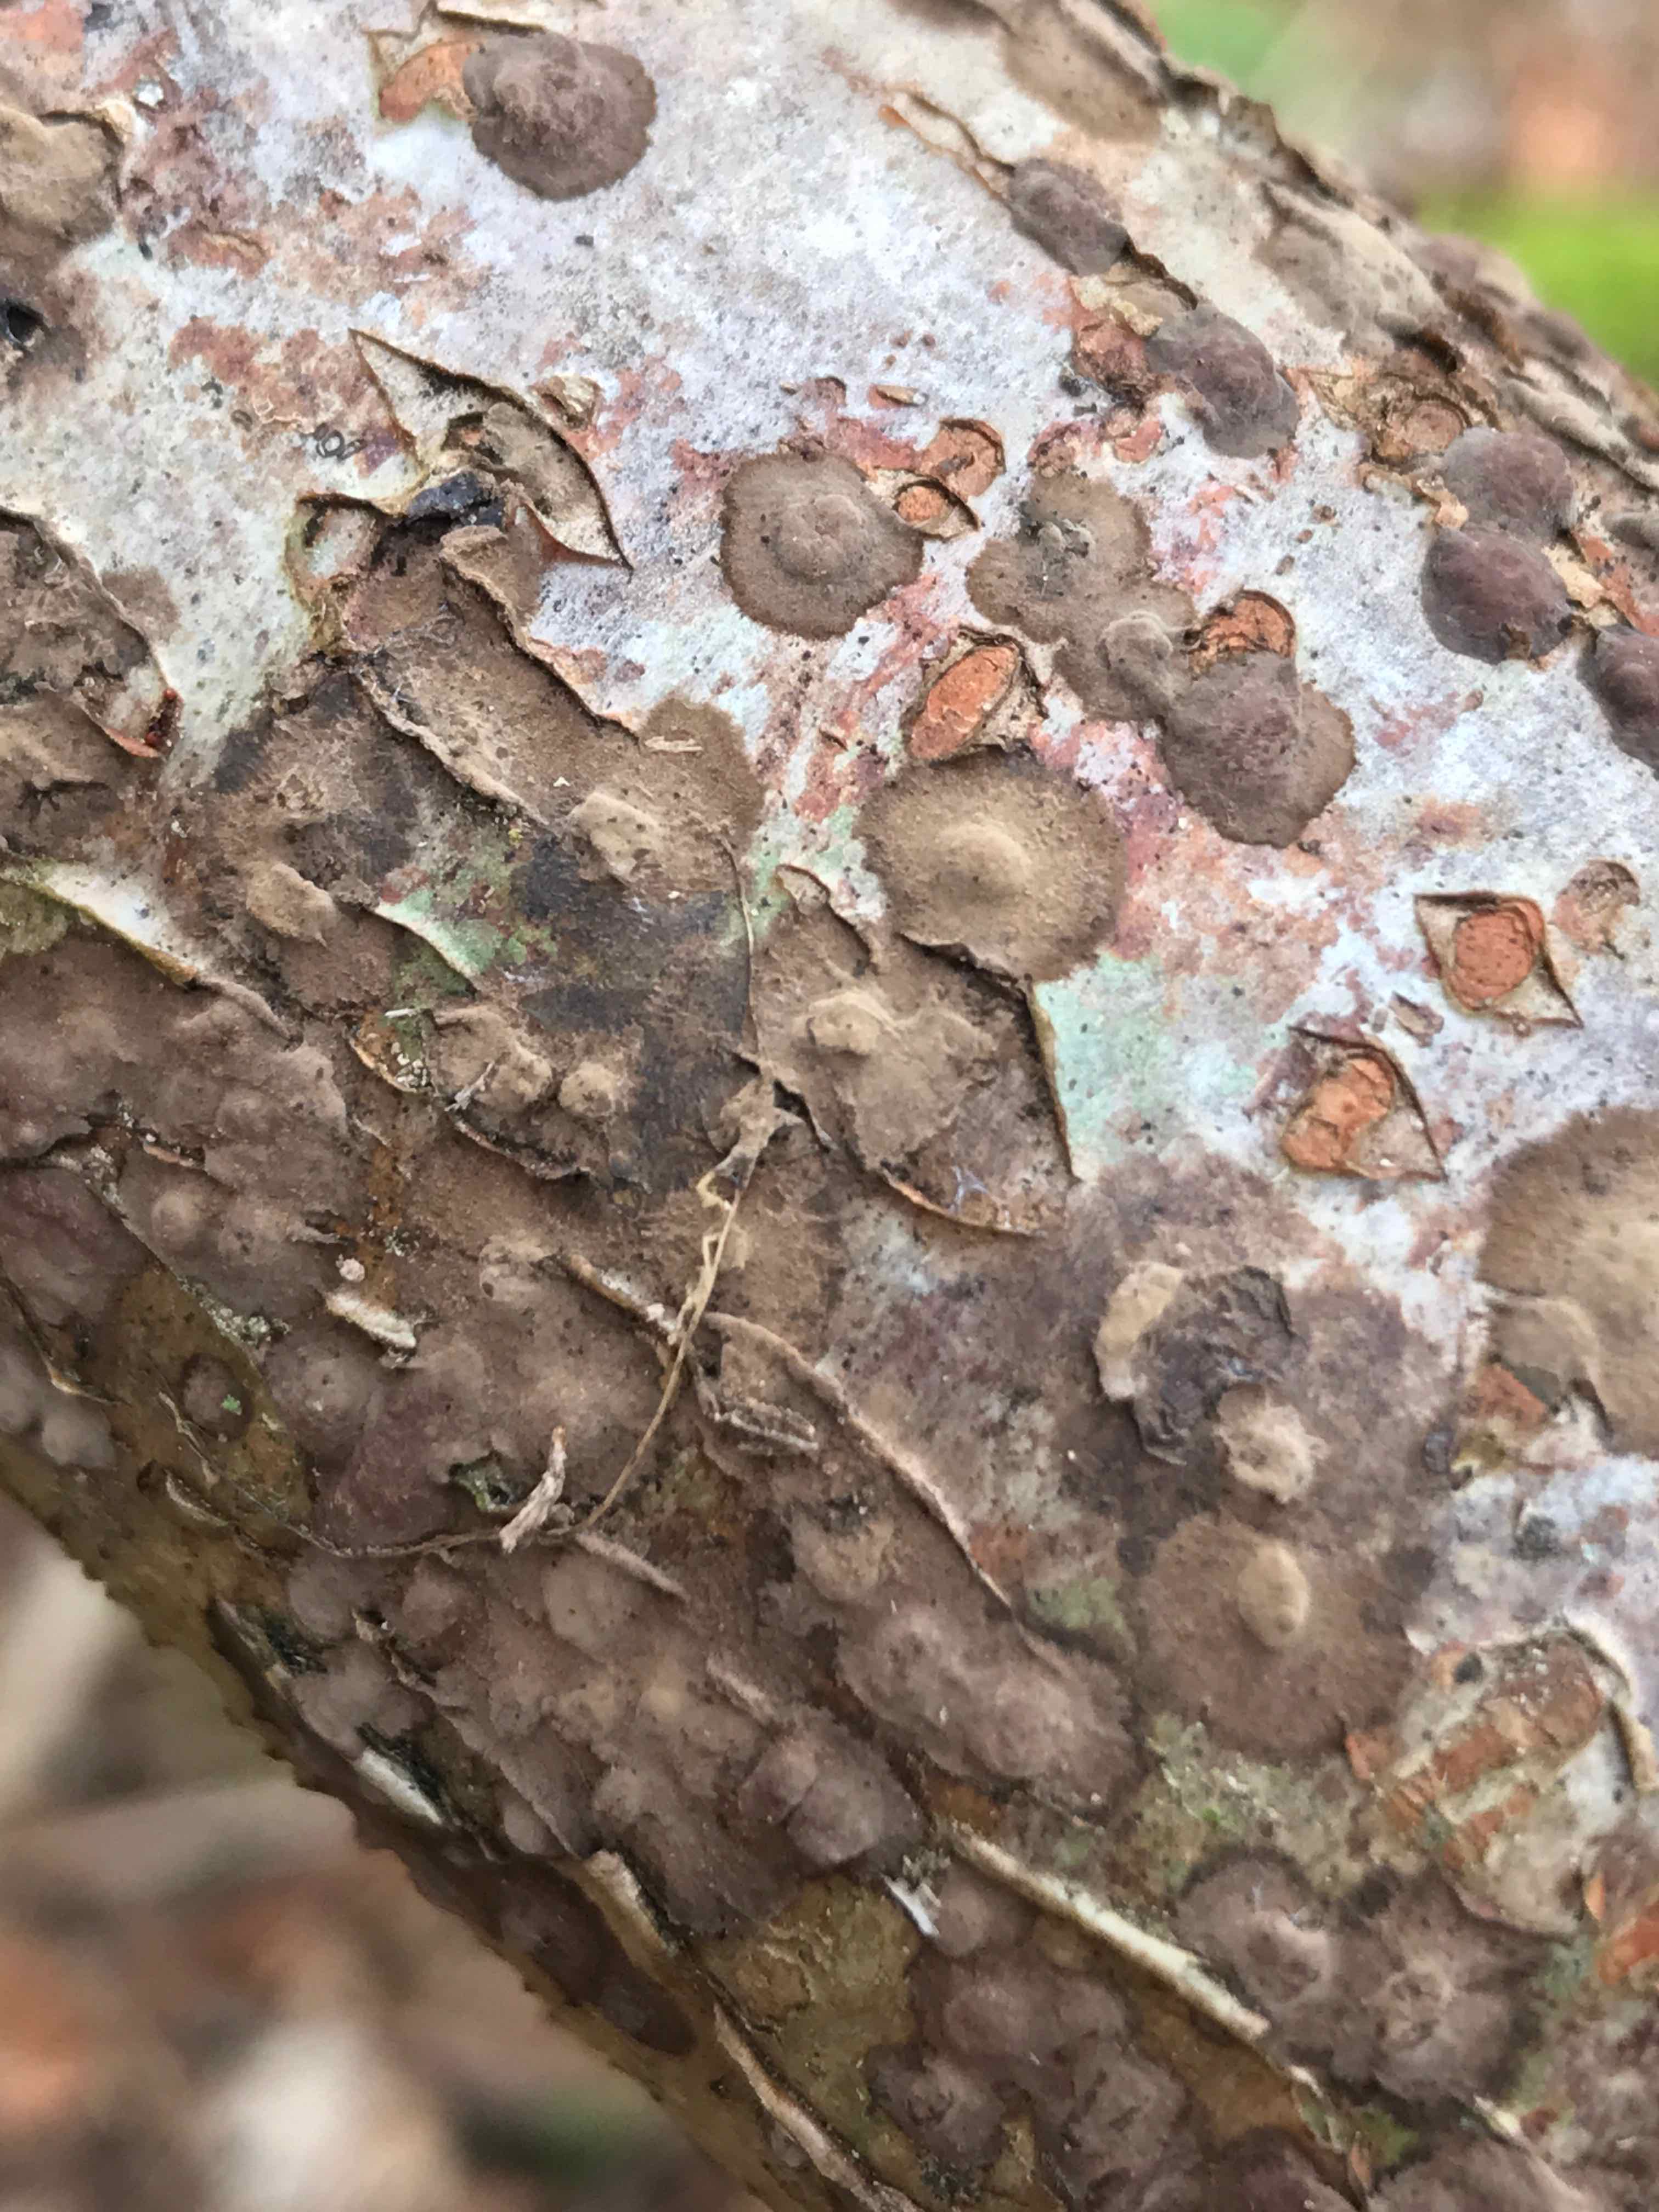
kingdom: Fungi
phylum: Ascomycota
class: Sordariomycetes
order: Xylariales
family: Hypoxylaceae
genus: Hypoxylon
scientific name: Hypoxylon fuscum
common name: kegleformet kulbær
